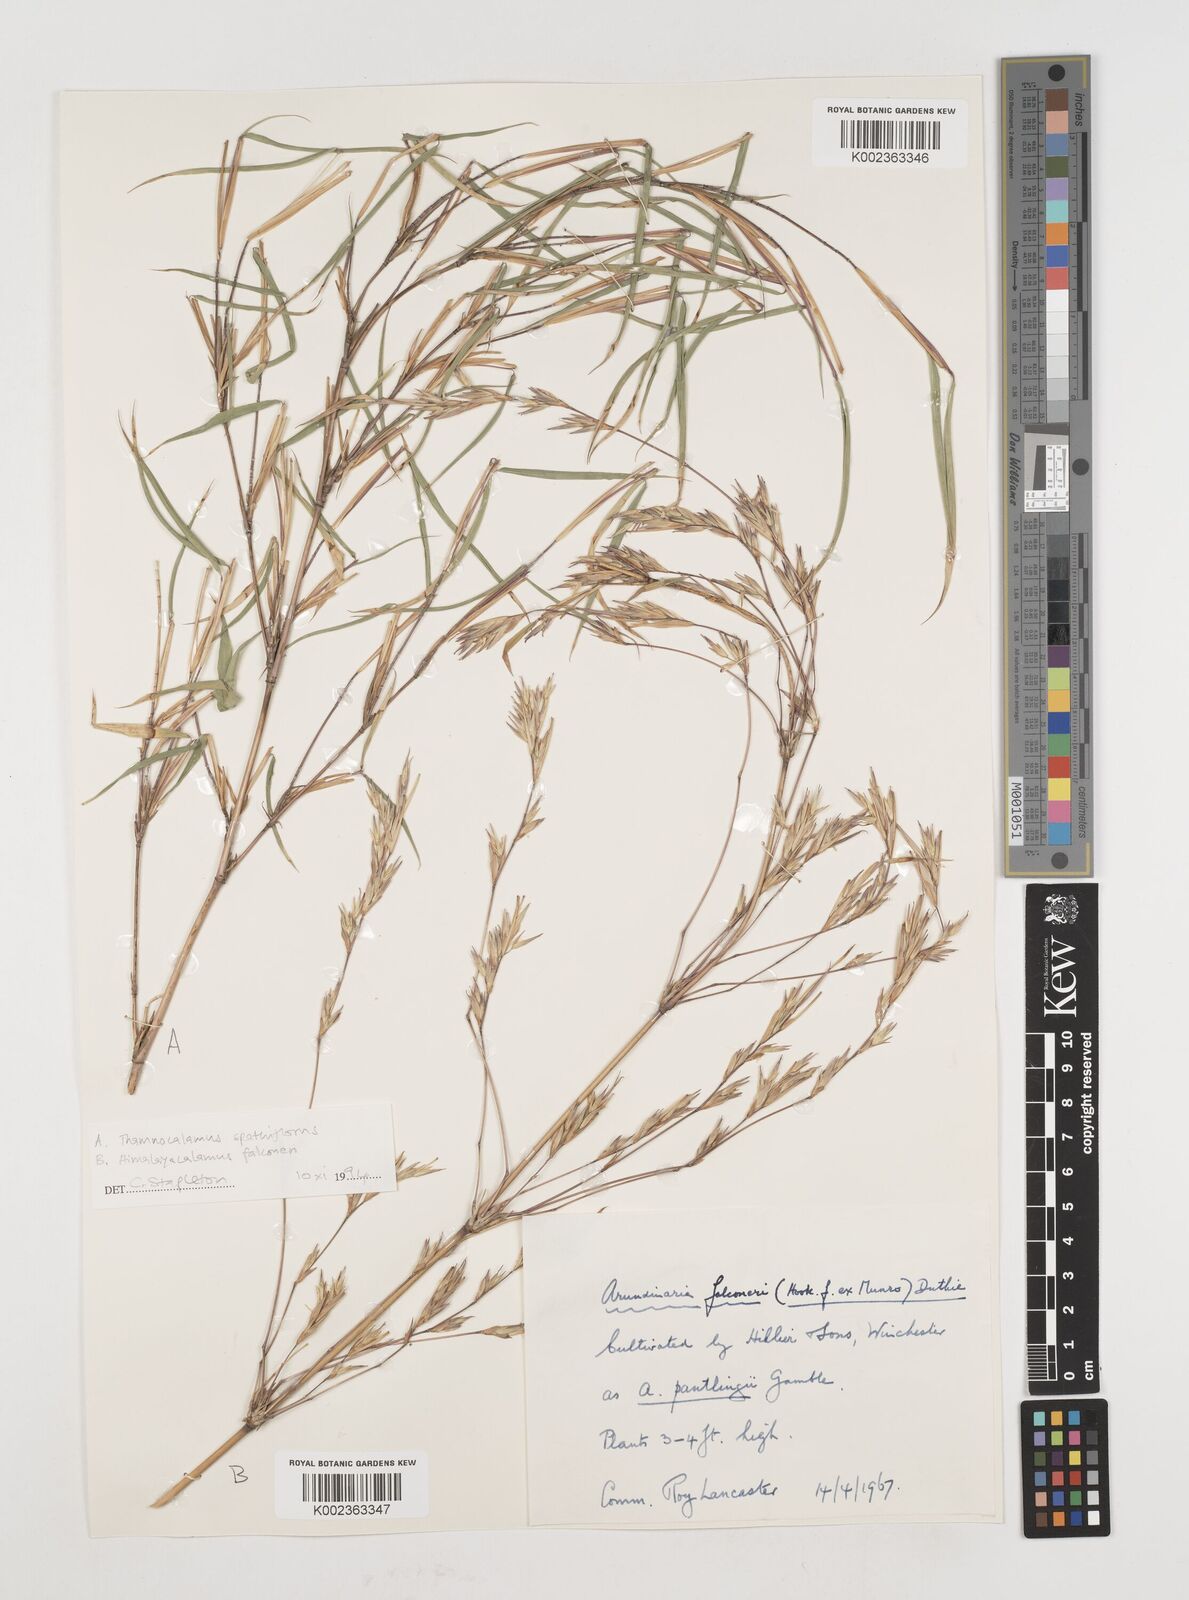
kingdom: Plantae
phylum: Tracheophyta
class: Liliopsida
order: Poales
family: Poaceae
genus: Himalayacalamus
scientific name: Himalayacalamus falconeri
